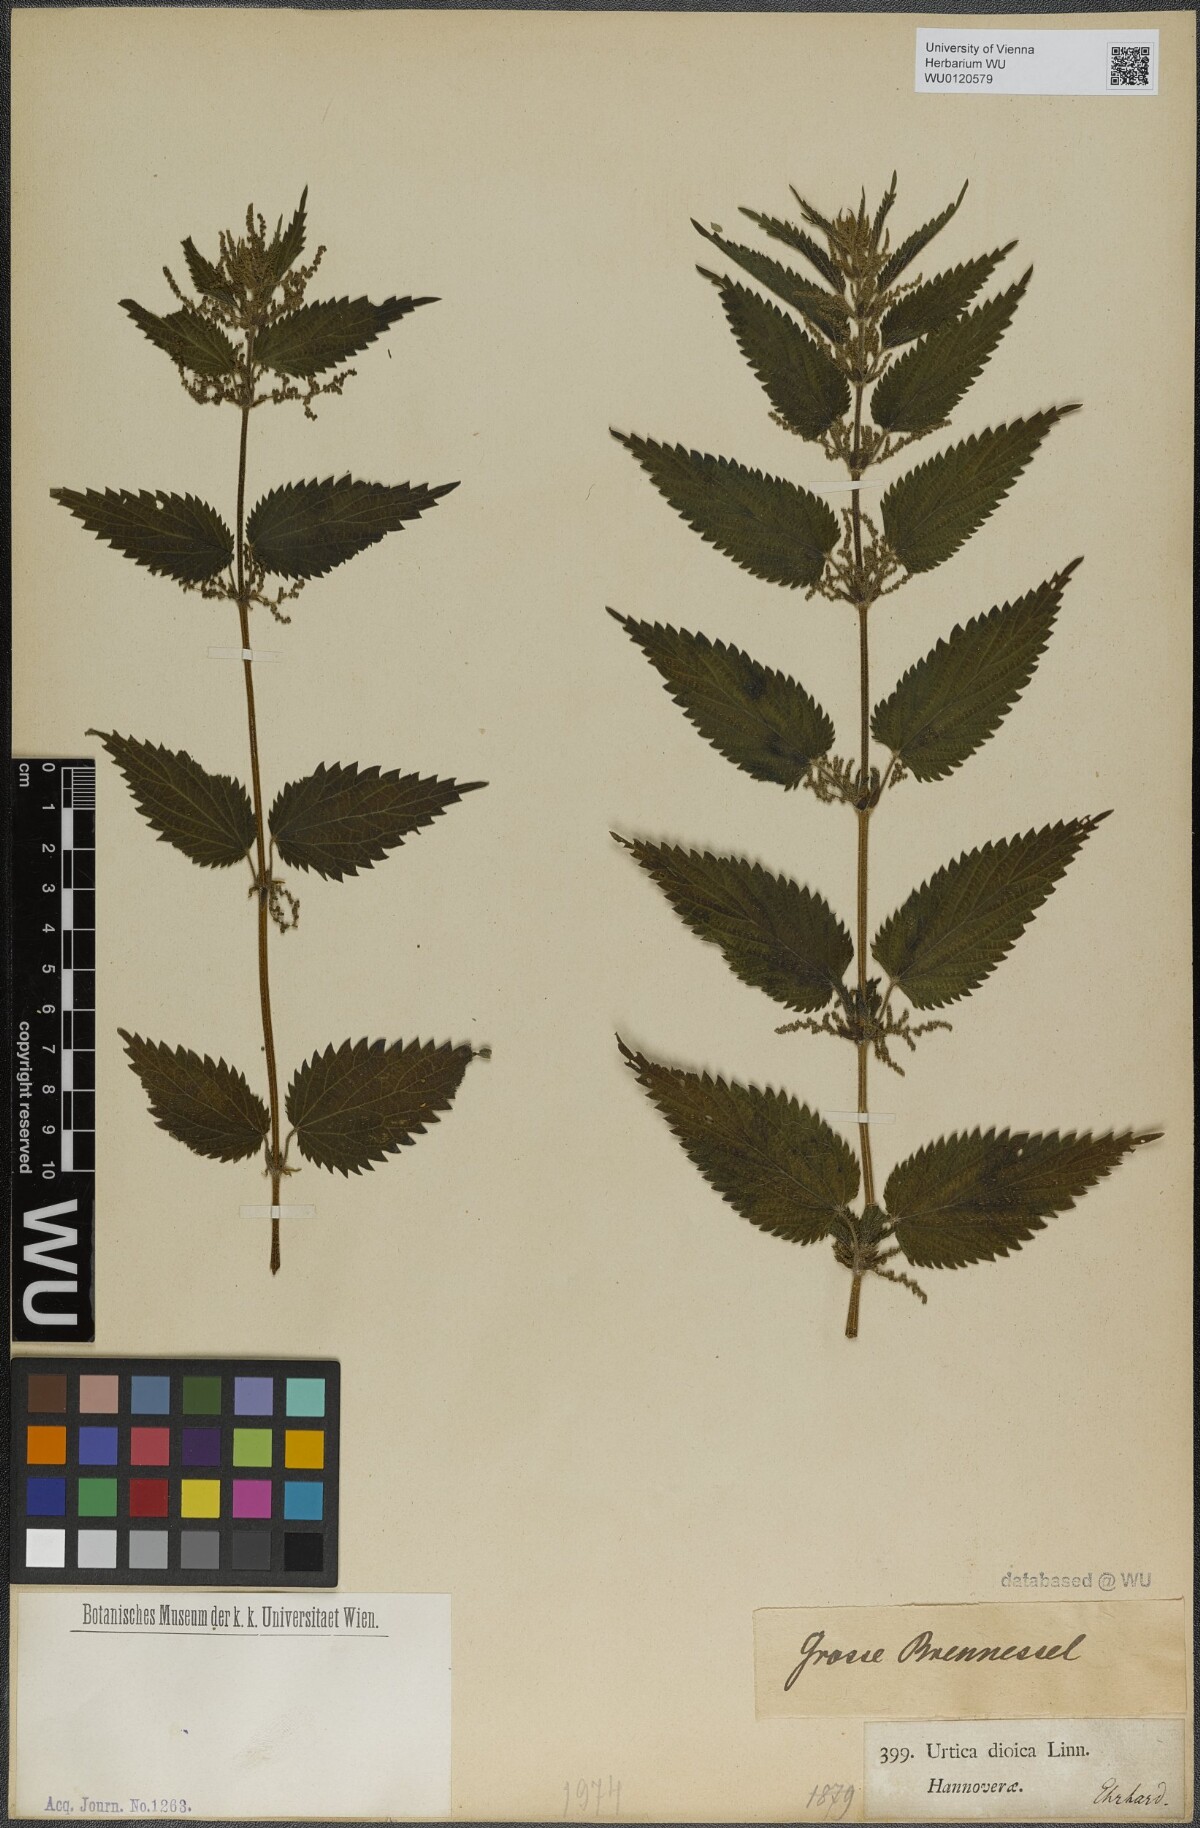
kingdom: Plantae
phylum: Tracheophyta
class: Magnoliopsida
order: Rosales
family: Urticaceae
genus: Urtica
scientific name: Urtica dioica
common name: Common nettle
